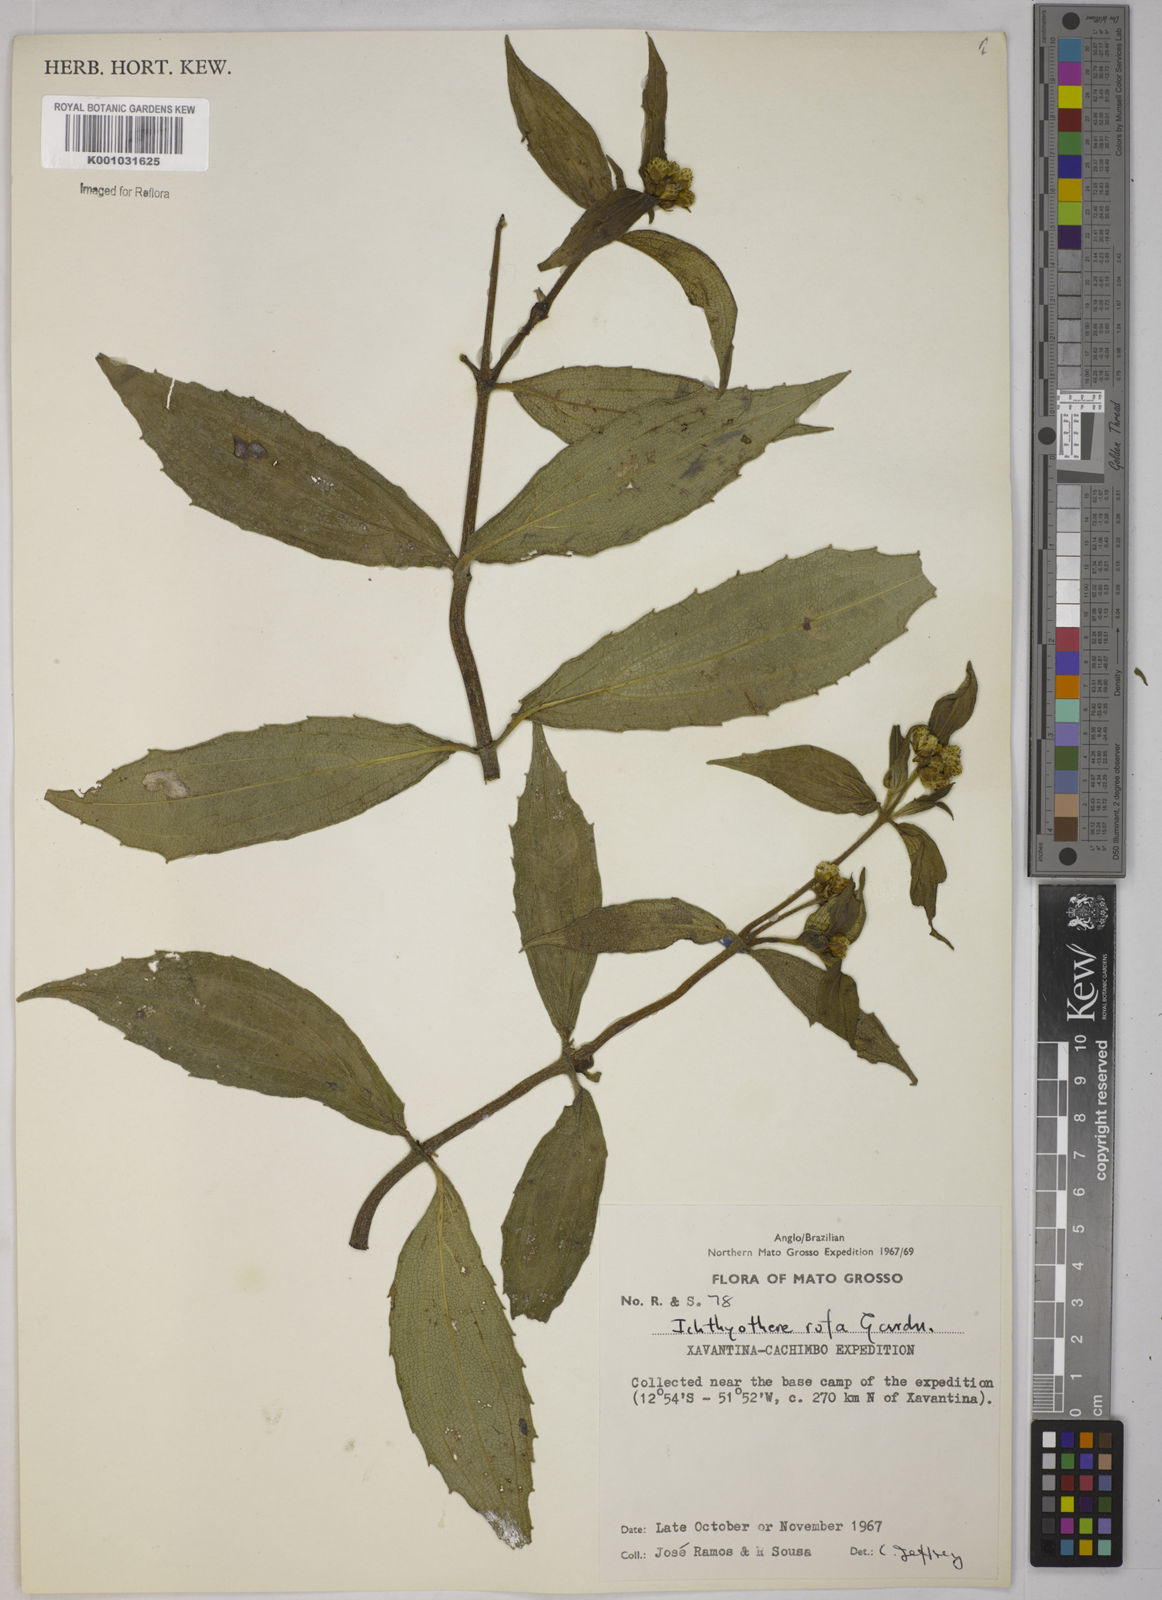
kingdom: Plantae
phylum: Tracheophyta
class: Magnoliopsida
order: Asterales
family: Asteraceae
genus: Ichthyothere
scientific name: Ichthyothere rufa
